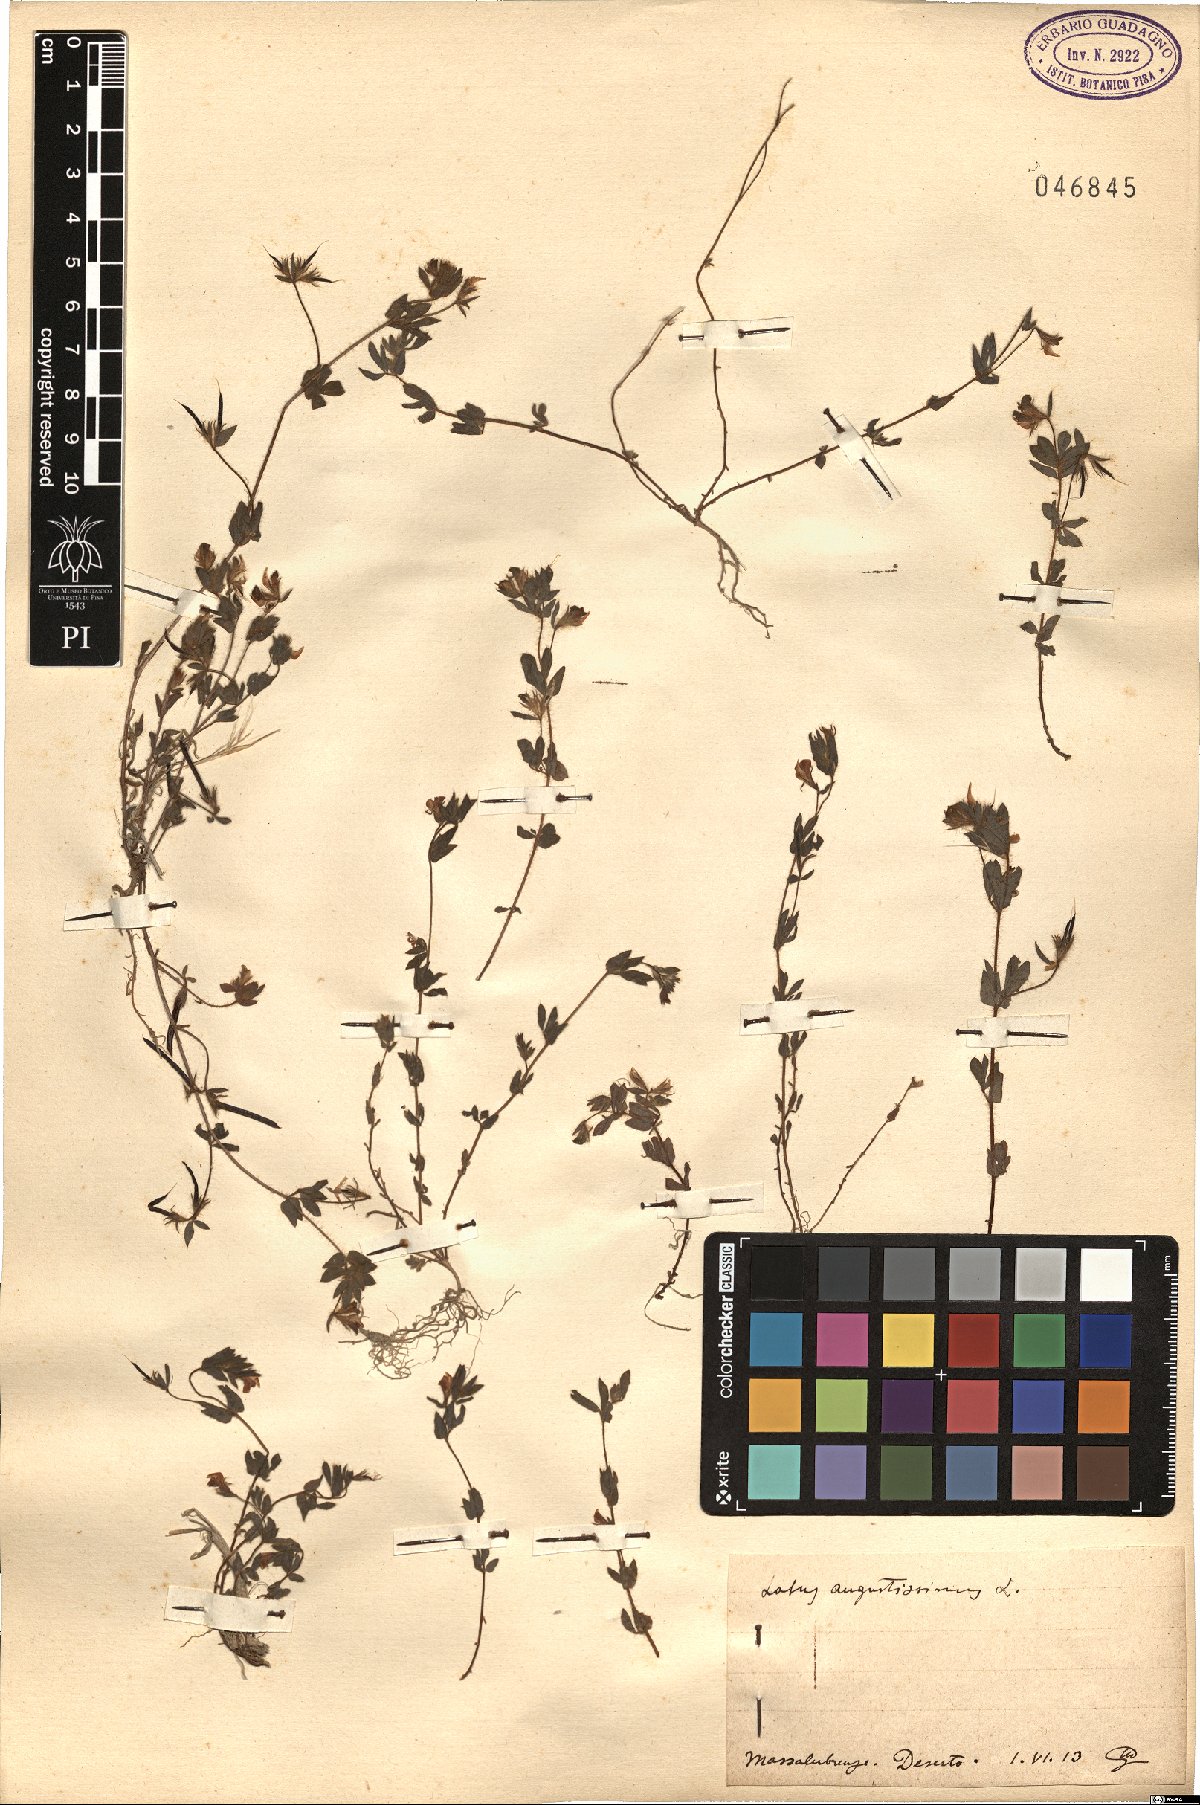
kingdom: Plantae
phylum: Tracheophyta
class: Magnoliopsida
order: Fabales
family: Fabaceae
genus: Lotus
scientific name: Lotus angustissimus
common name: Slender bird's-foot trefoil
